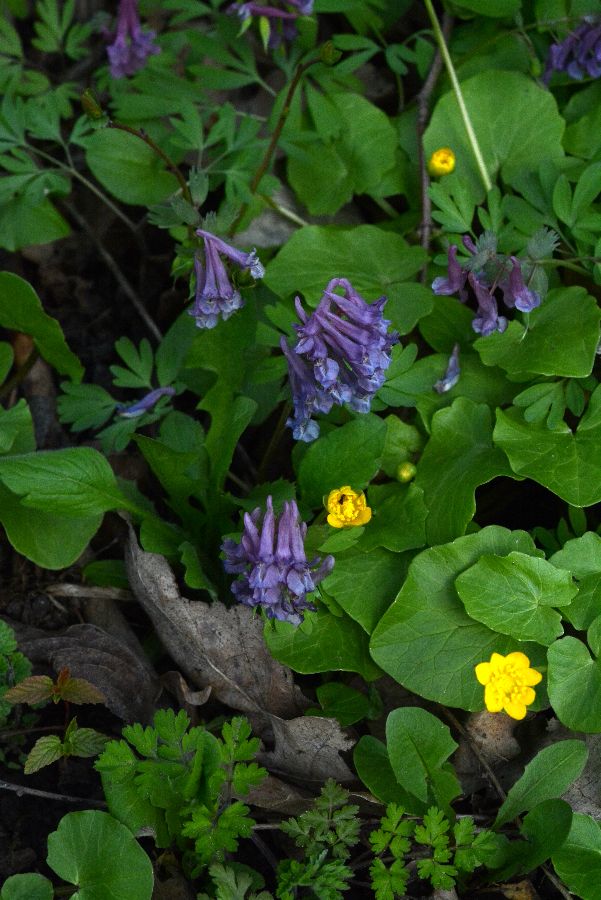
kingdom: Plantae
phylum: Tracheophyta
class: Magnoliopsida
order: Ranunculales
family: Papaveraceae
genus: Corydalis
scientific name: Corydalis solida
